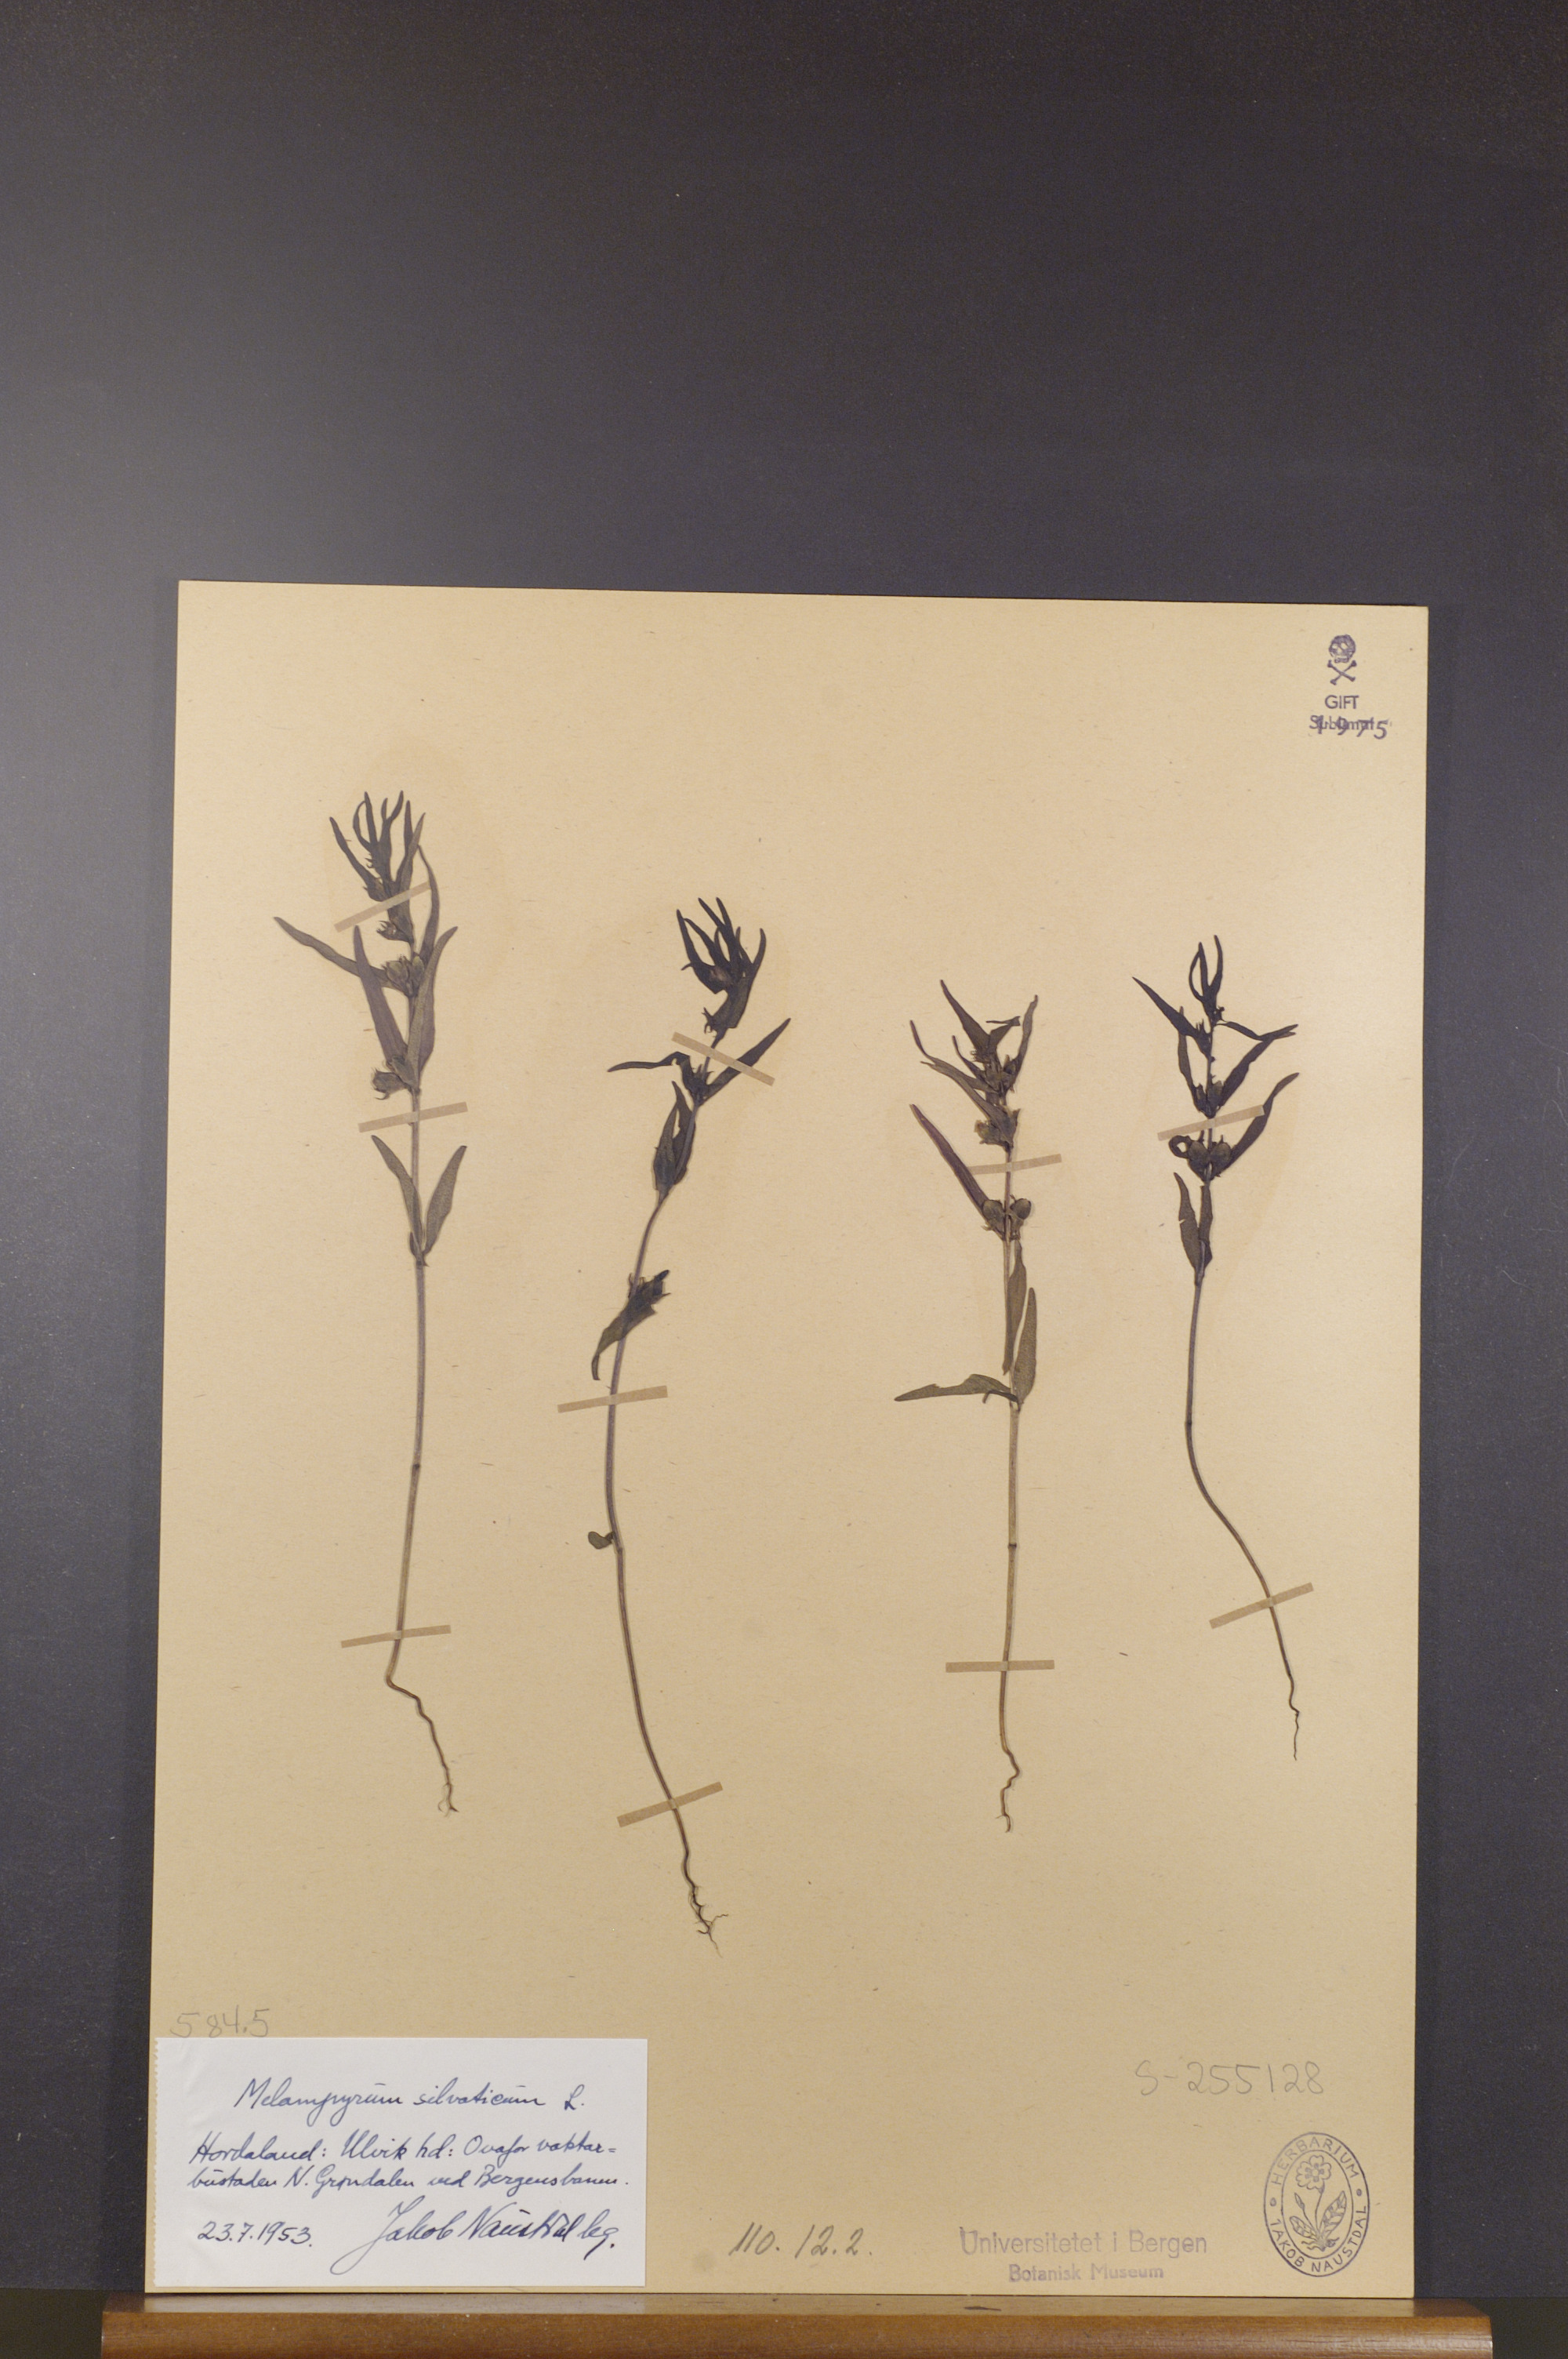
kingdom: Plantae
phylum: Tracheophyta
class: Magnoliopsida
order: Lamiales
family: Orobanchaceae
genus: Melampyrum
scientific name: Melampyrum sylvaticum
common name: Small cow-wheat
